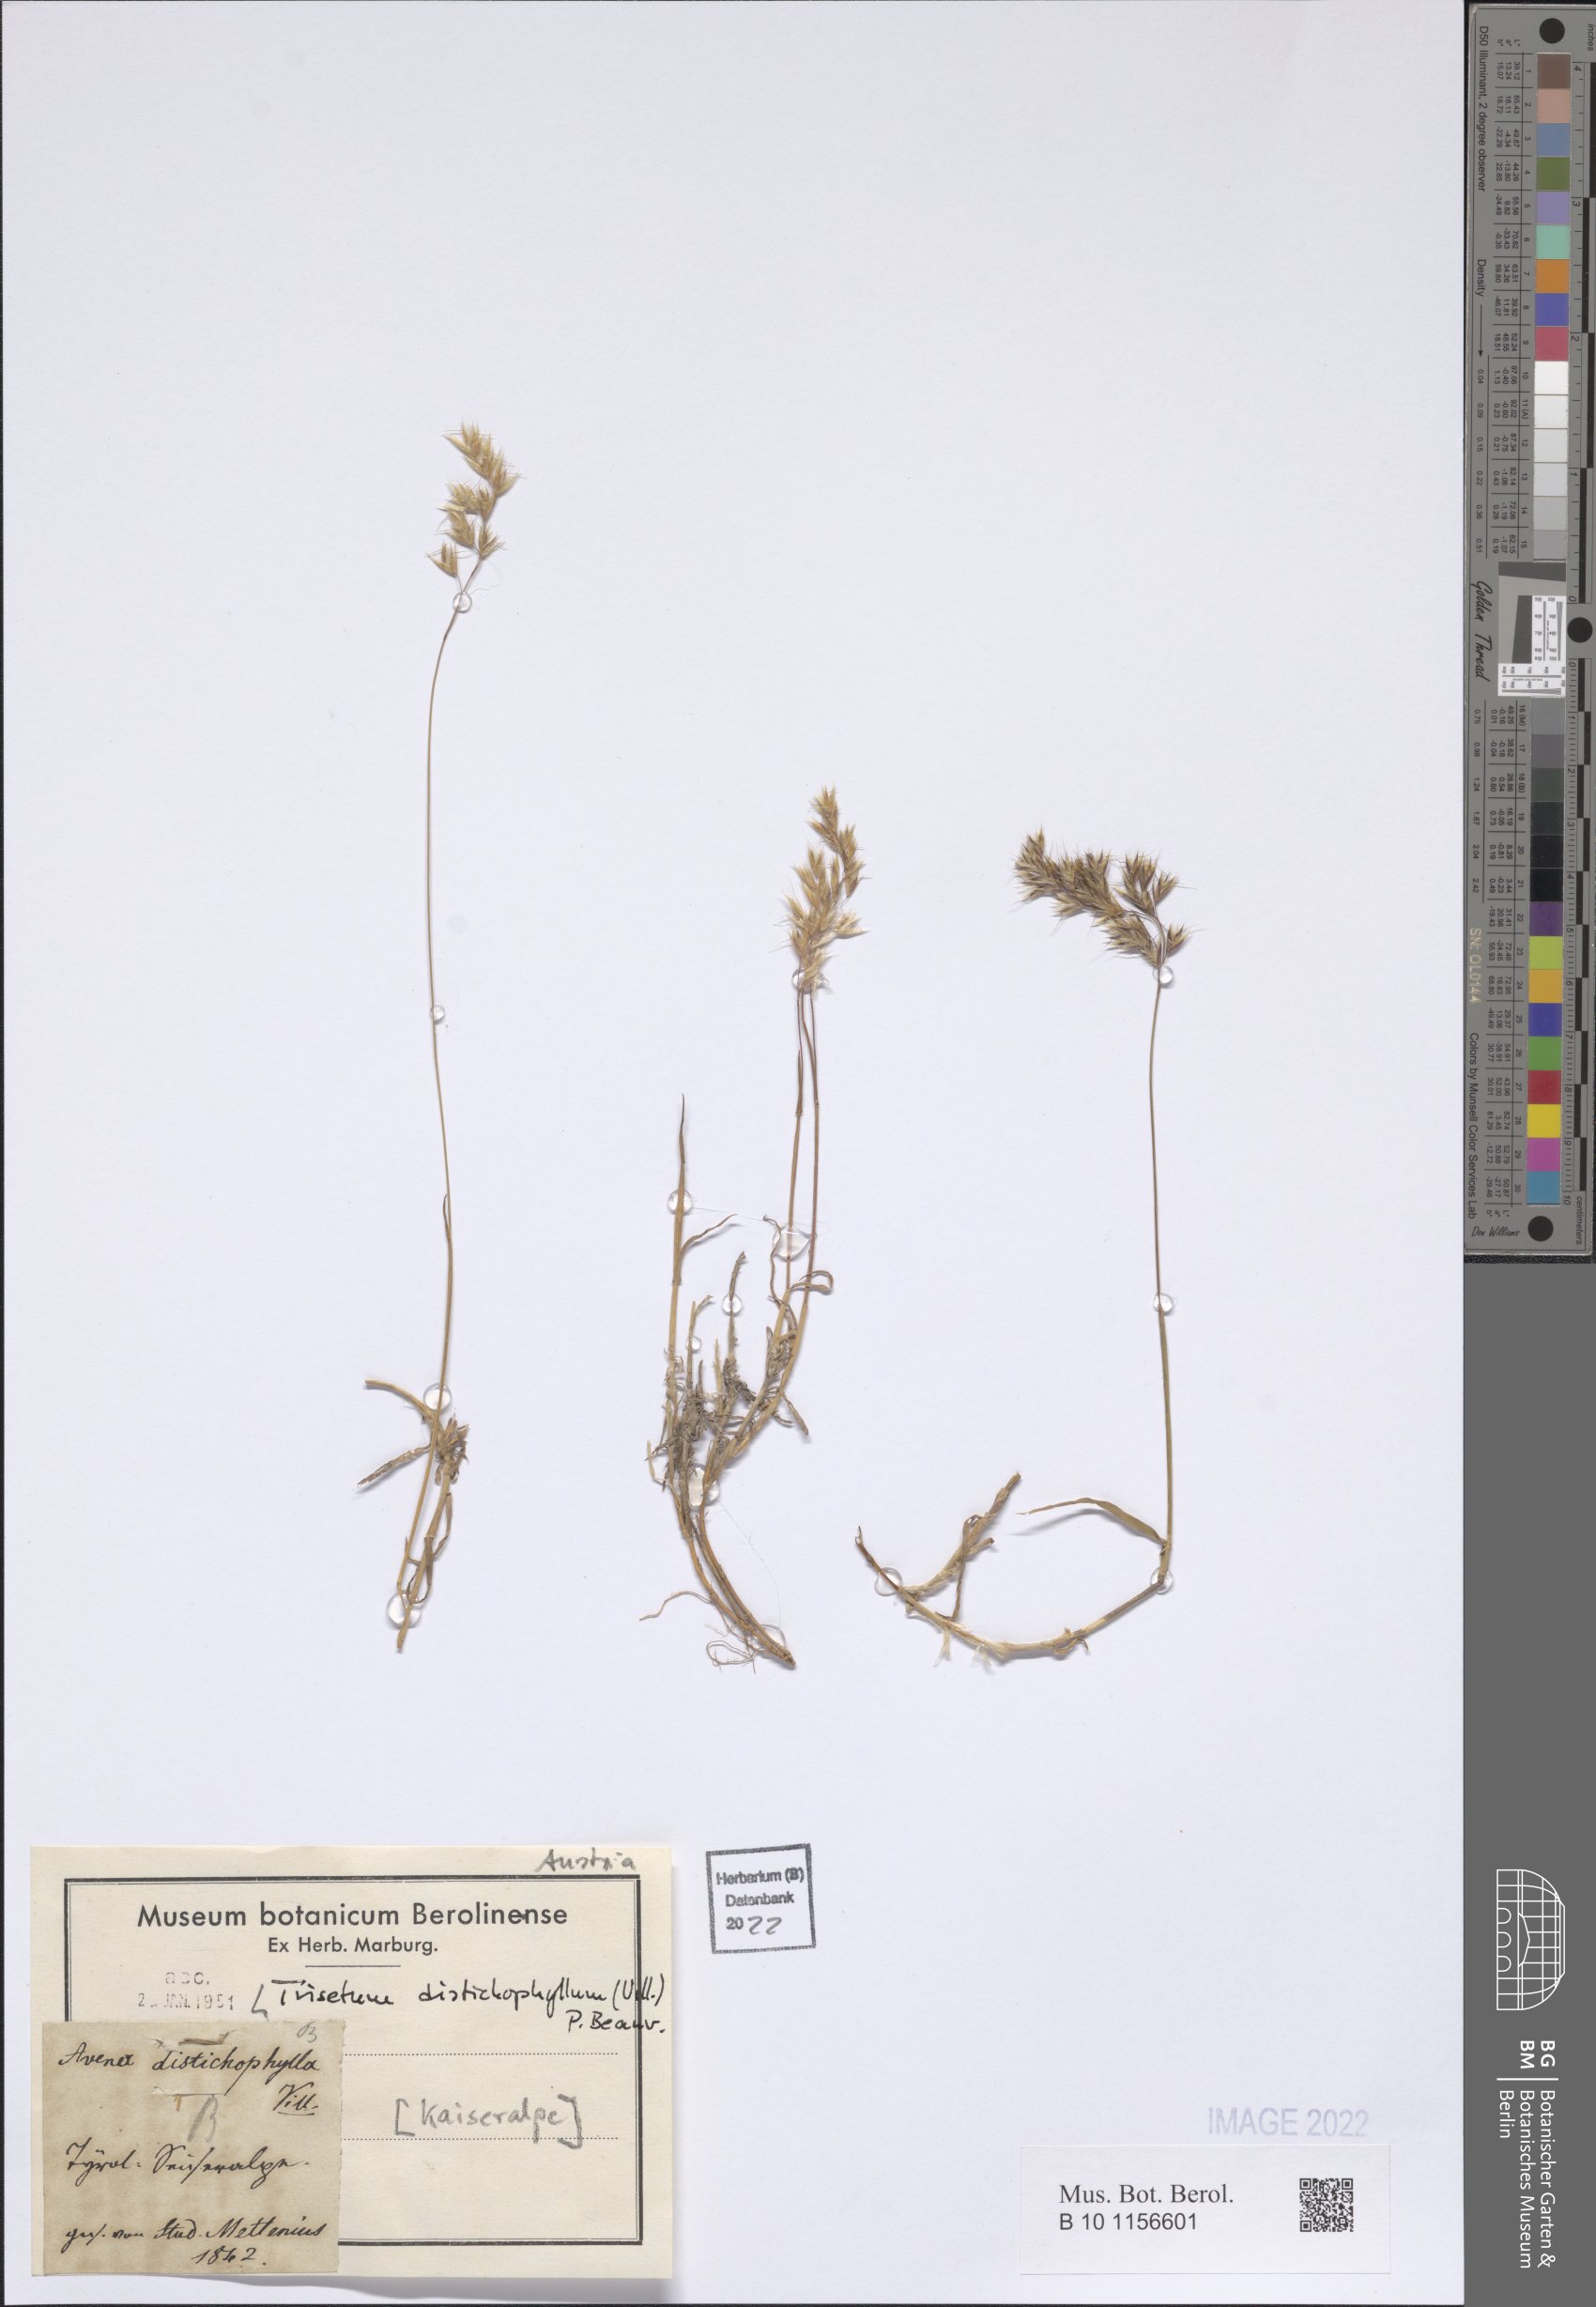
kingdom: Plantae
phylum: Tracheophyta
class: Liliopsida
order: Poales
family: Poaceae
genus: Acrospelion
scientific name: Acrospelion distichophyllum
